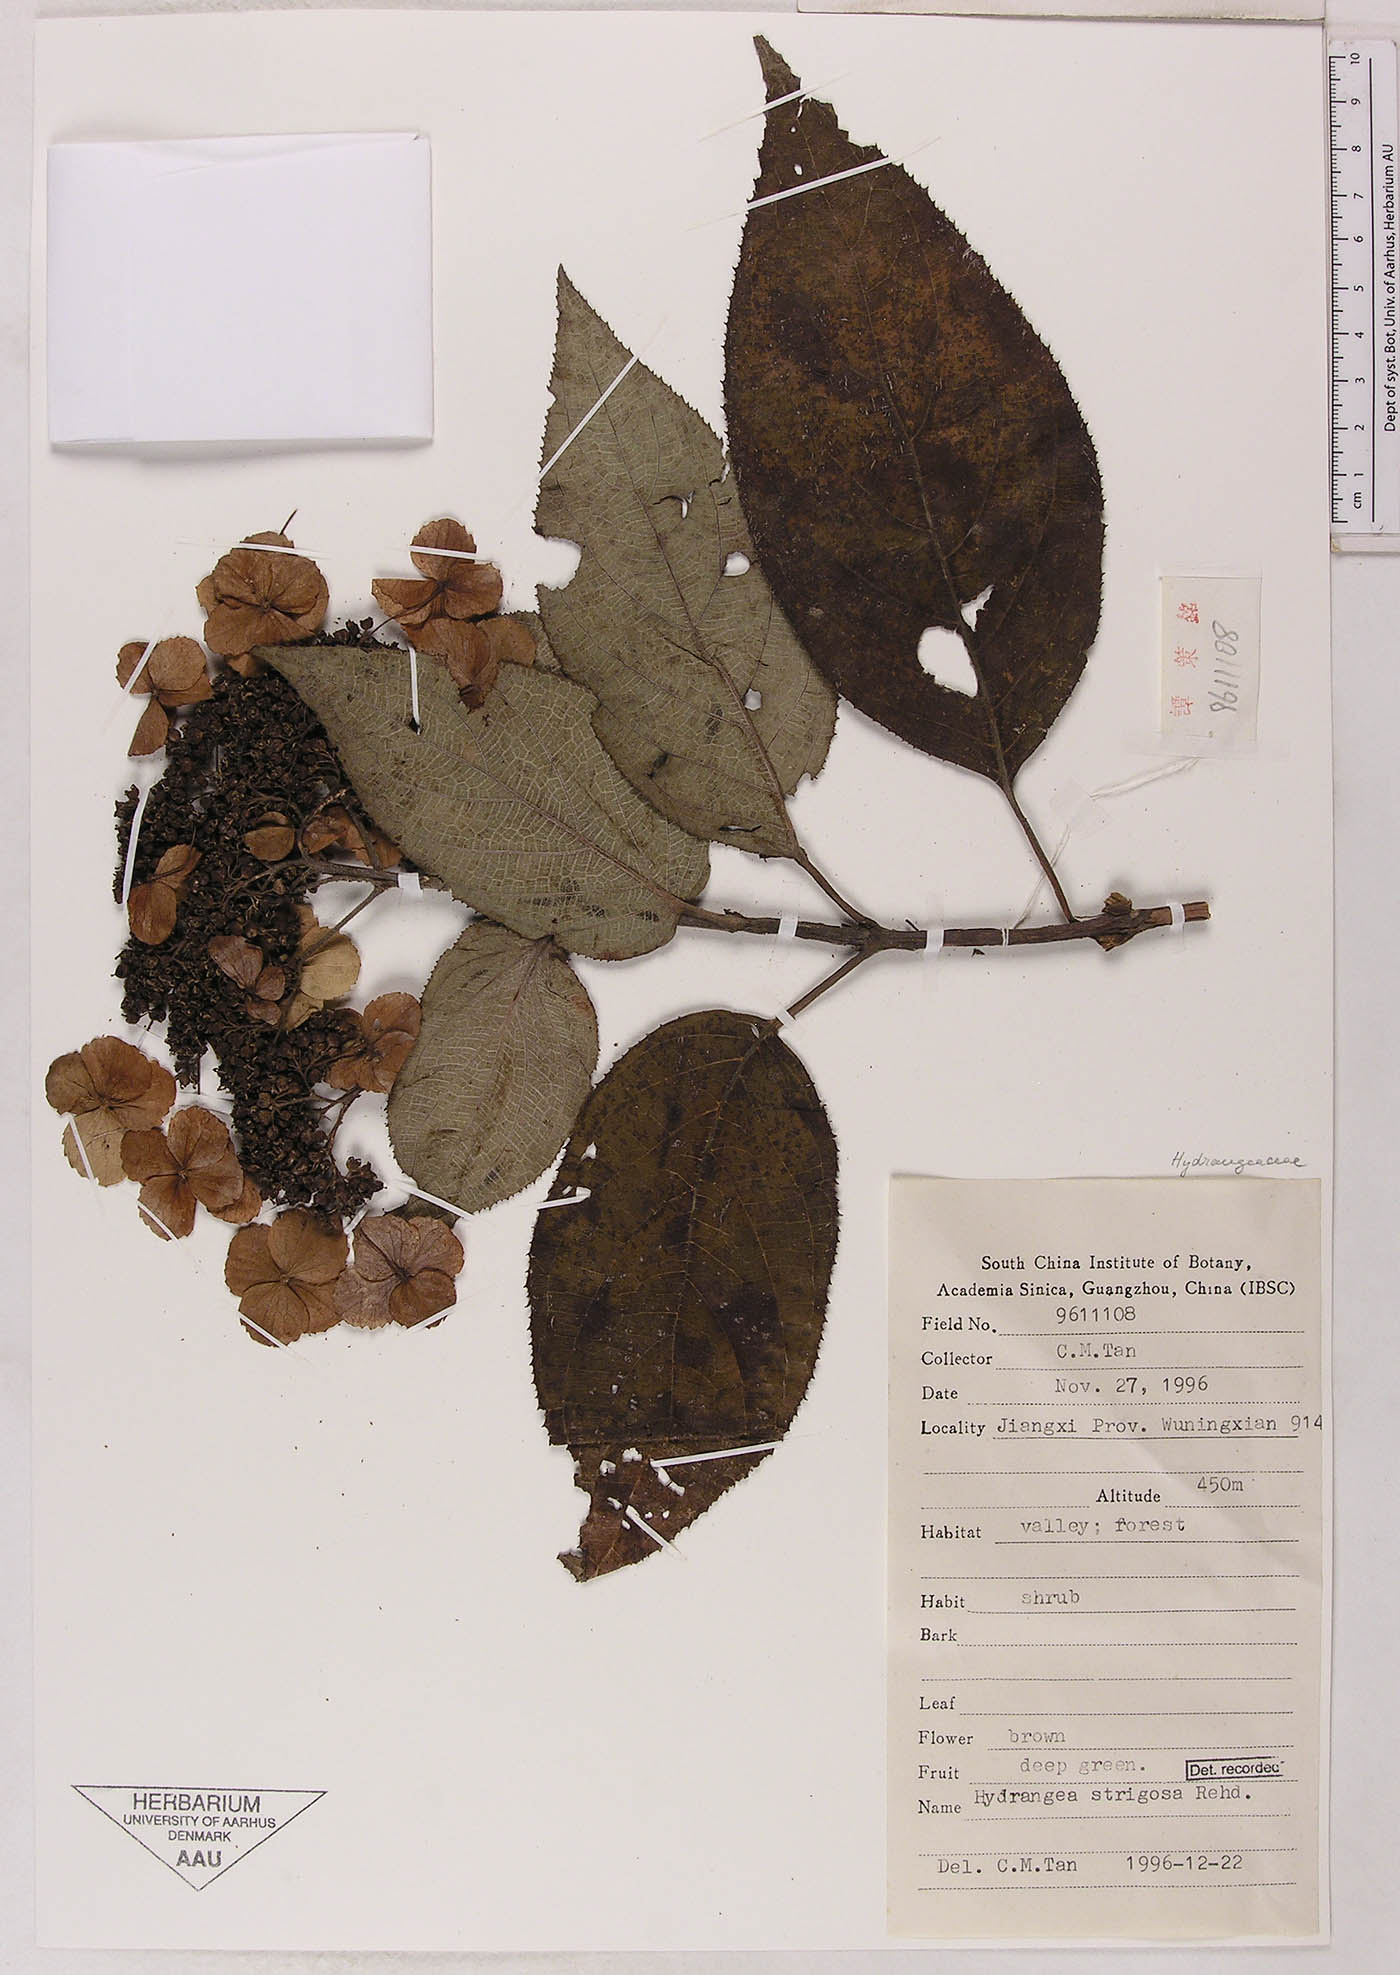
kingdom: Plantae
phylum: Tracheophyta
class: Magnoliopsida
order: Cornales
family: Hydrangeaceae
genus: Hydrangea
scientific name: Hydrangea strigosa
